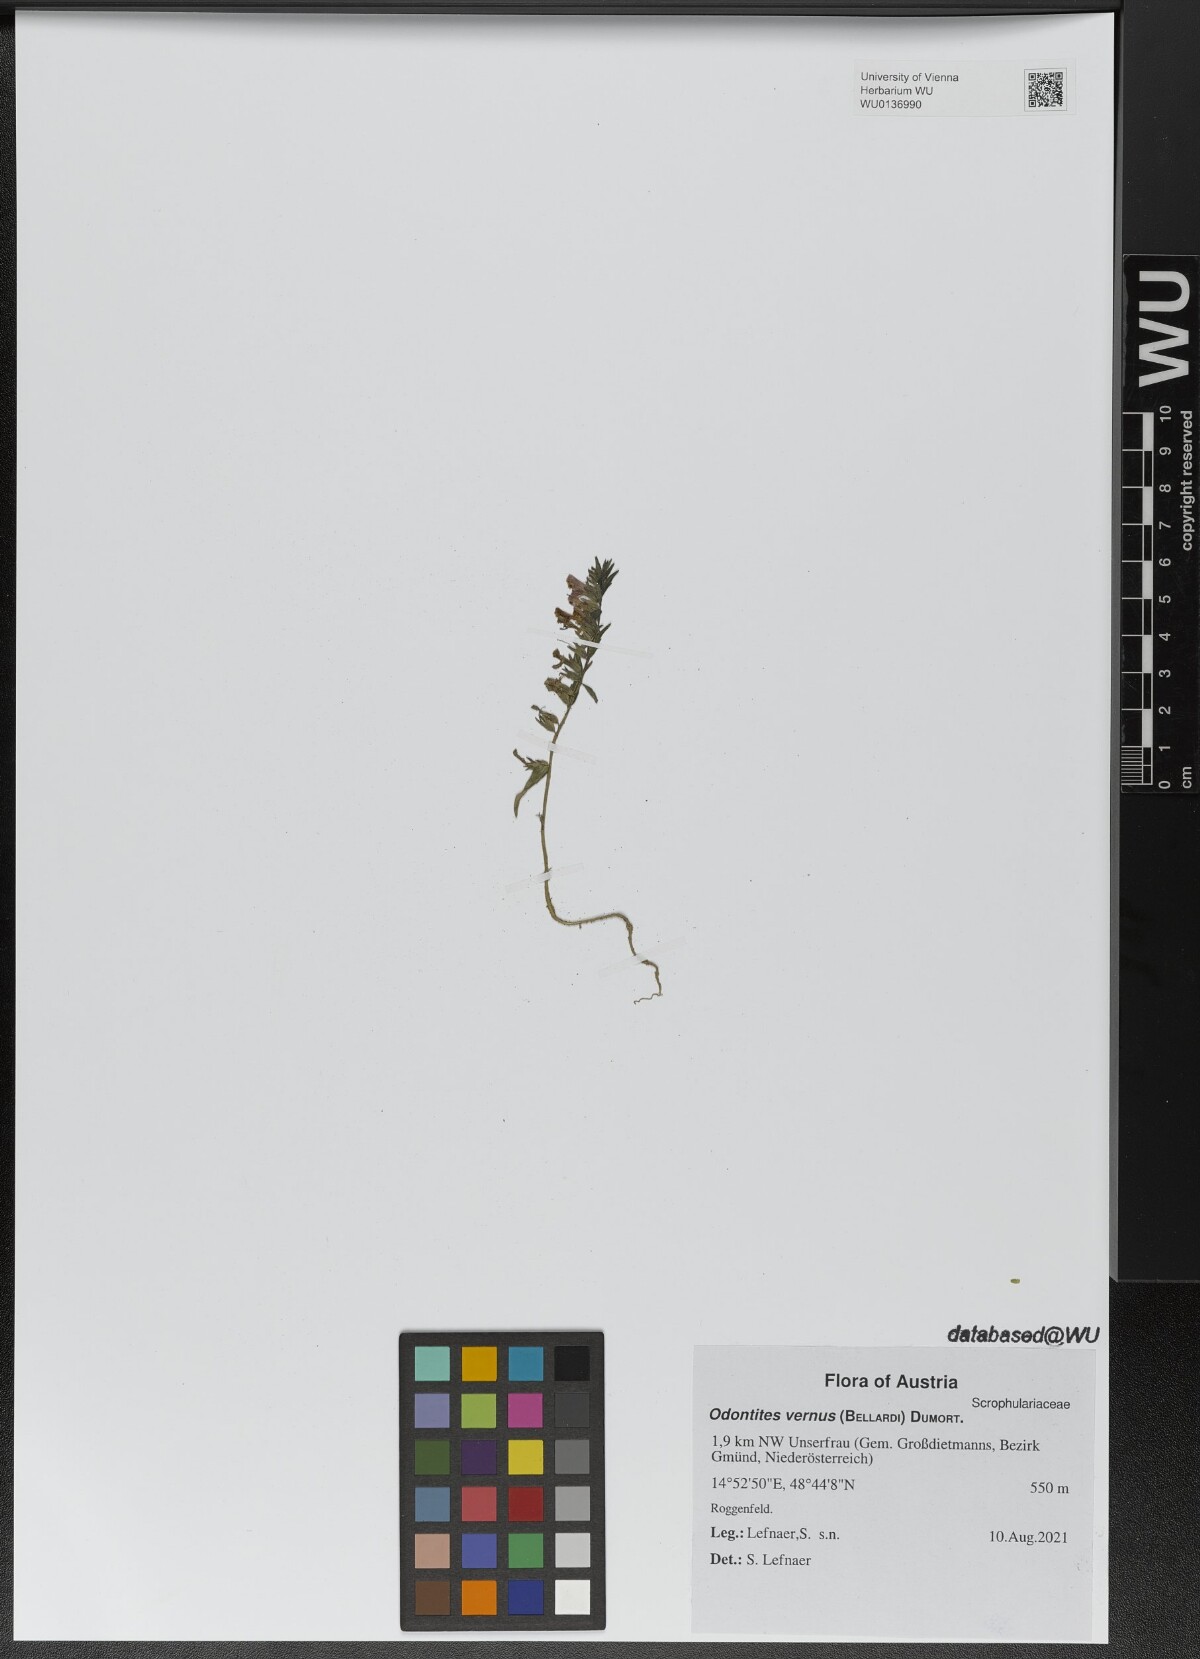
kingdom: Plantae
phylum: Tracheophyta
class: Magnoliopsida
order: Lamiales
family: Orobanchaceae
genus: Odontites
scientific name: Odontites vernus
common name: Red bartsia
